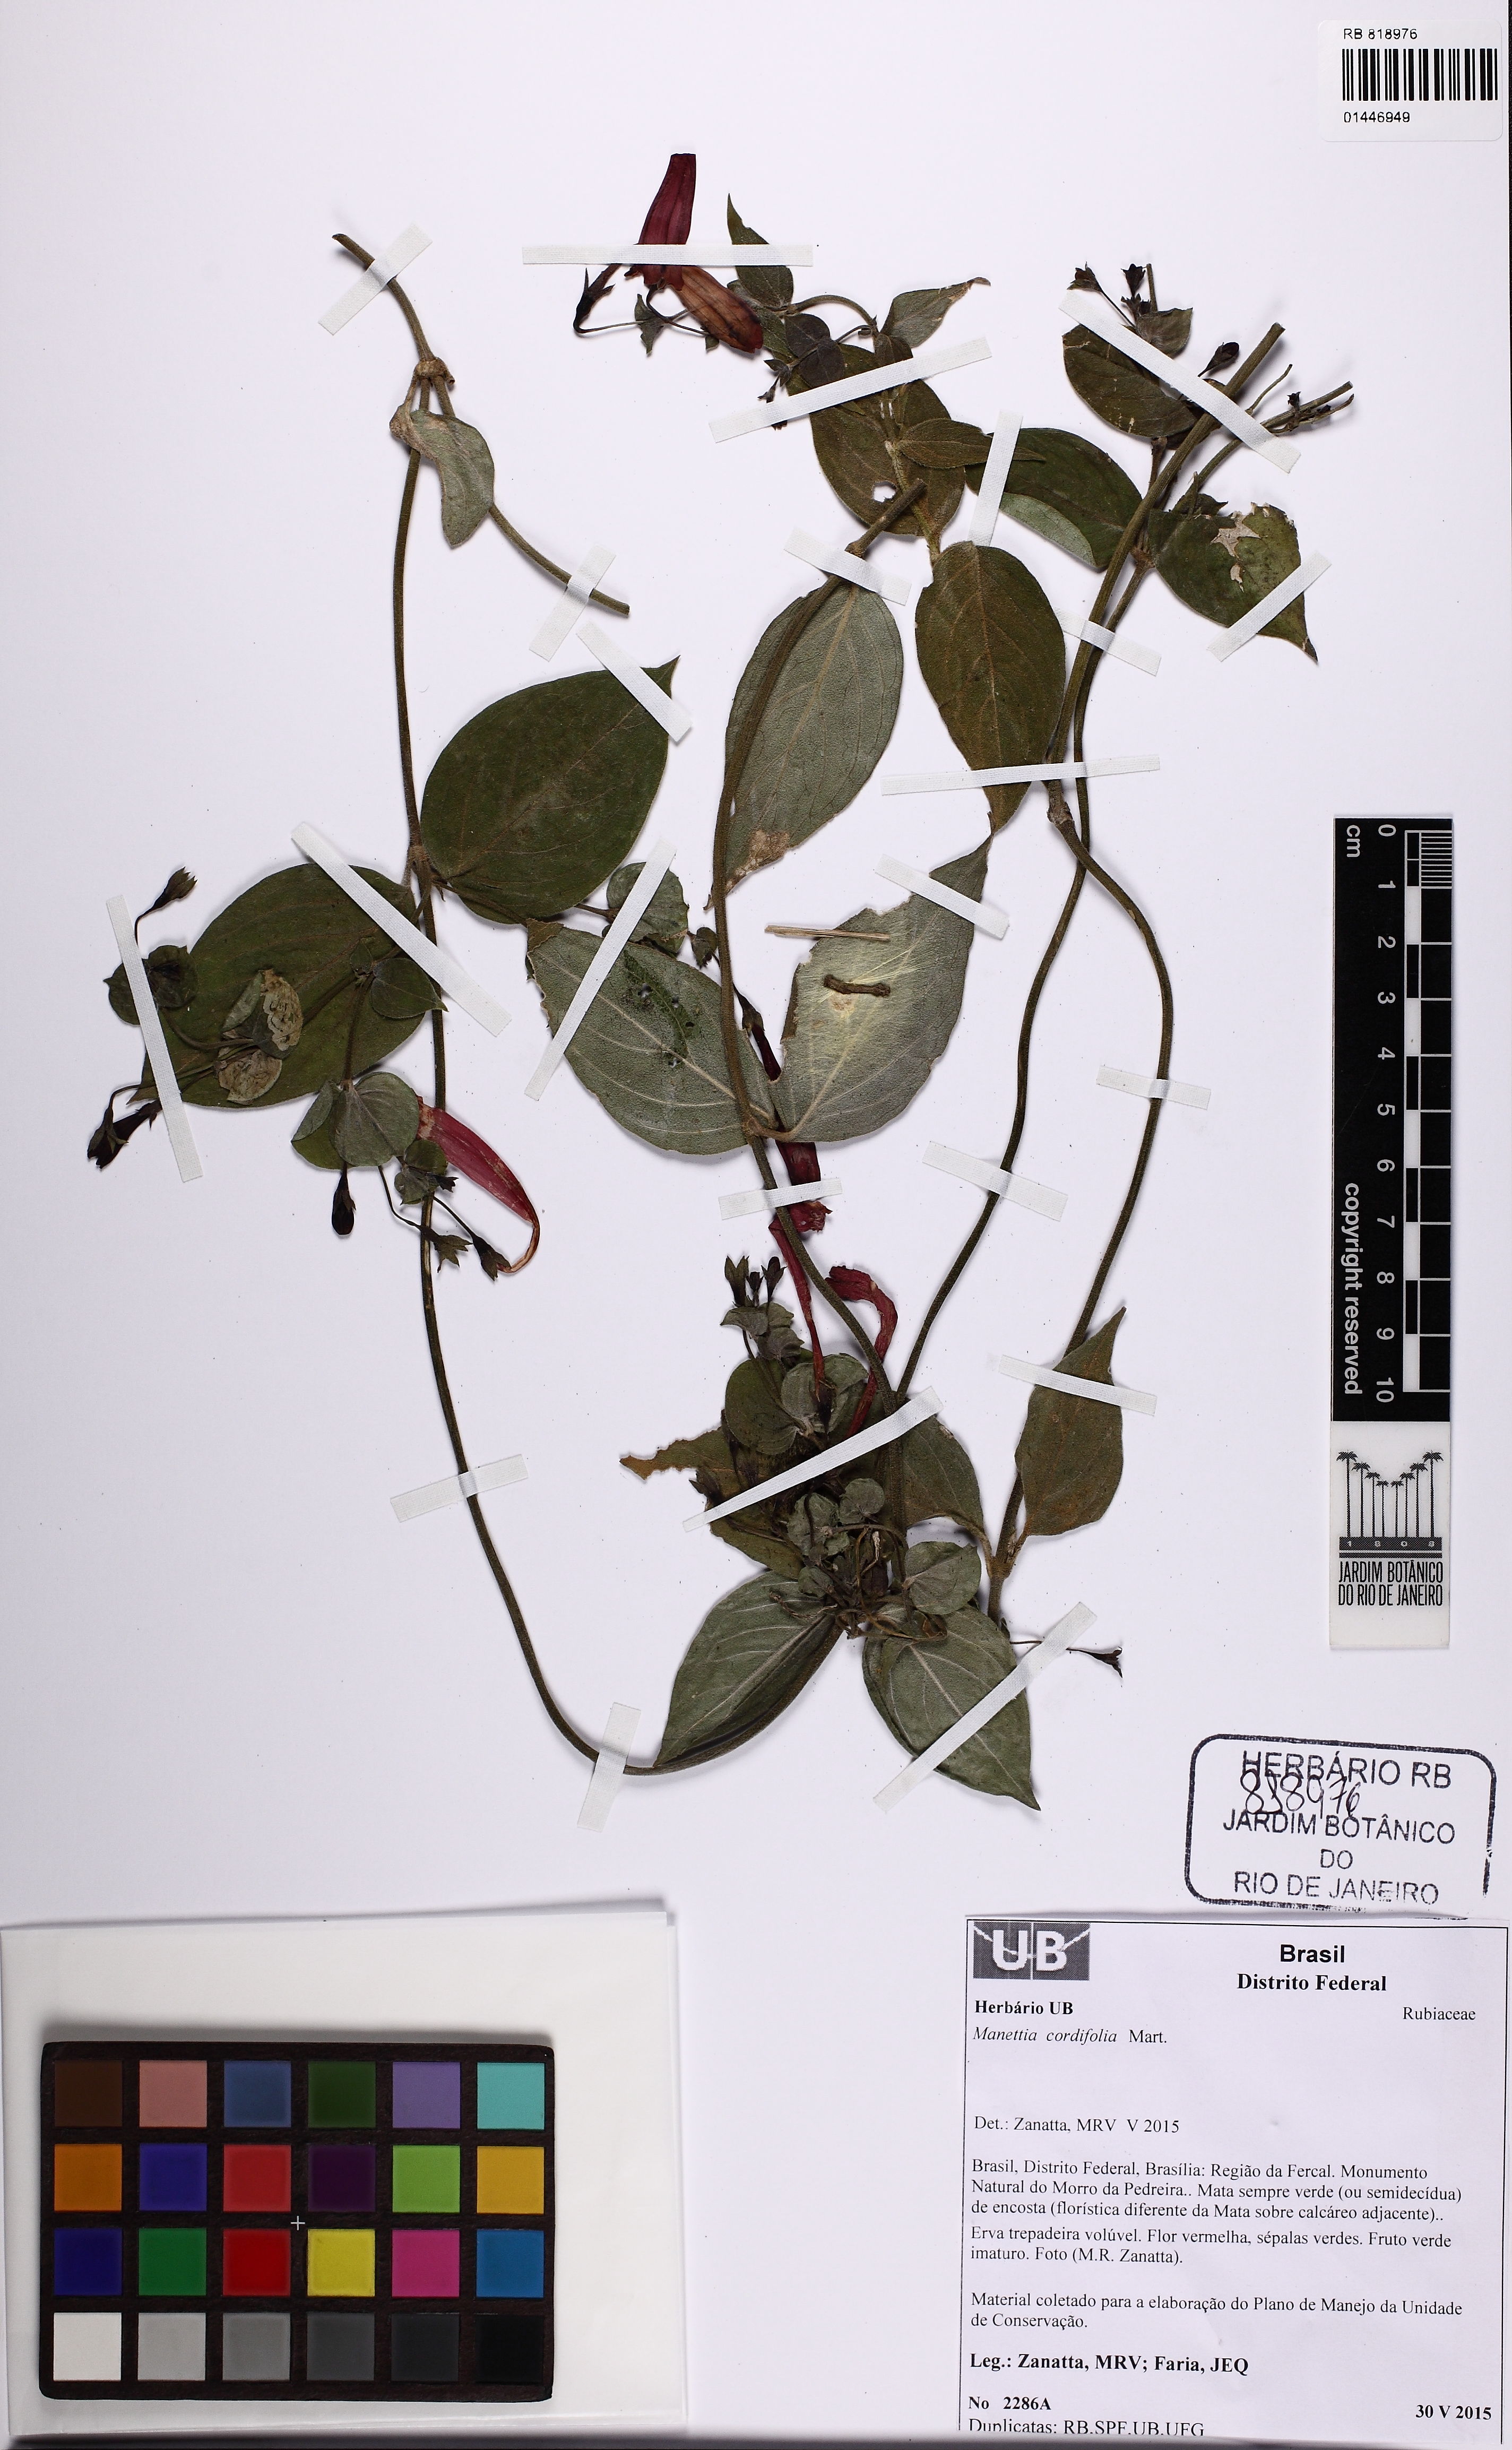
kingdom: Plantae
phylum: Tracheophyta
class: Magnoliopsida
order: Gentianales
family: Rubiaceae
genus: Manettia
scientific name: Manettia cordifolia
